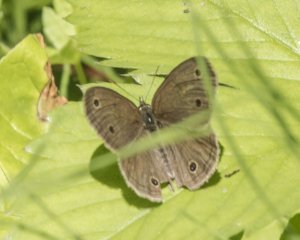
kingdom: Animalia
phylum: Arthropoda
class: Insecta
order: Lepidoptera
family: Nymphalidae
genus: Euptychia
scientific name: Euptychia cymela
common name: Little Wood Satyr
